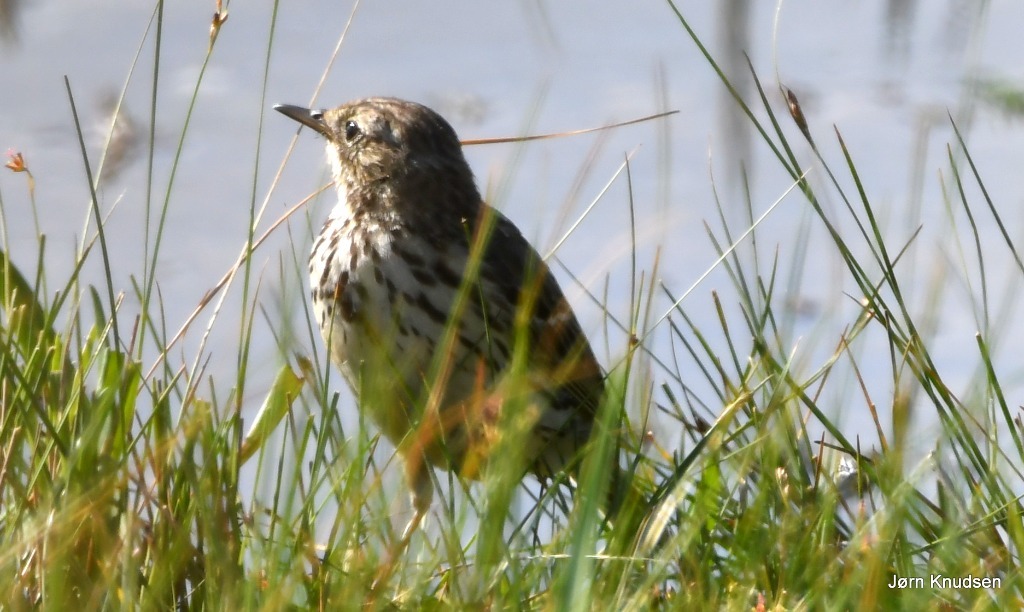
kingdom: Animalia
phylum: Chordata
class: Aves
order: Passeriformes
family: Motacillidae
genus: Anthus
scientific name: Anthus pratensis
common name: Engpiber
